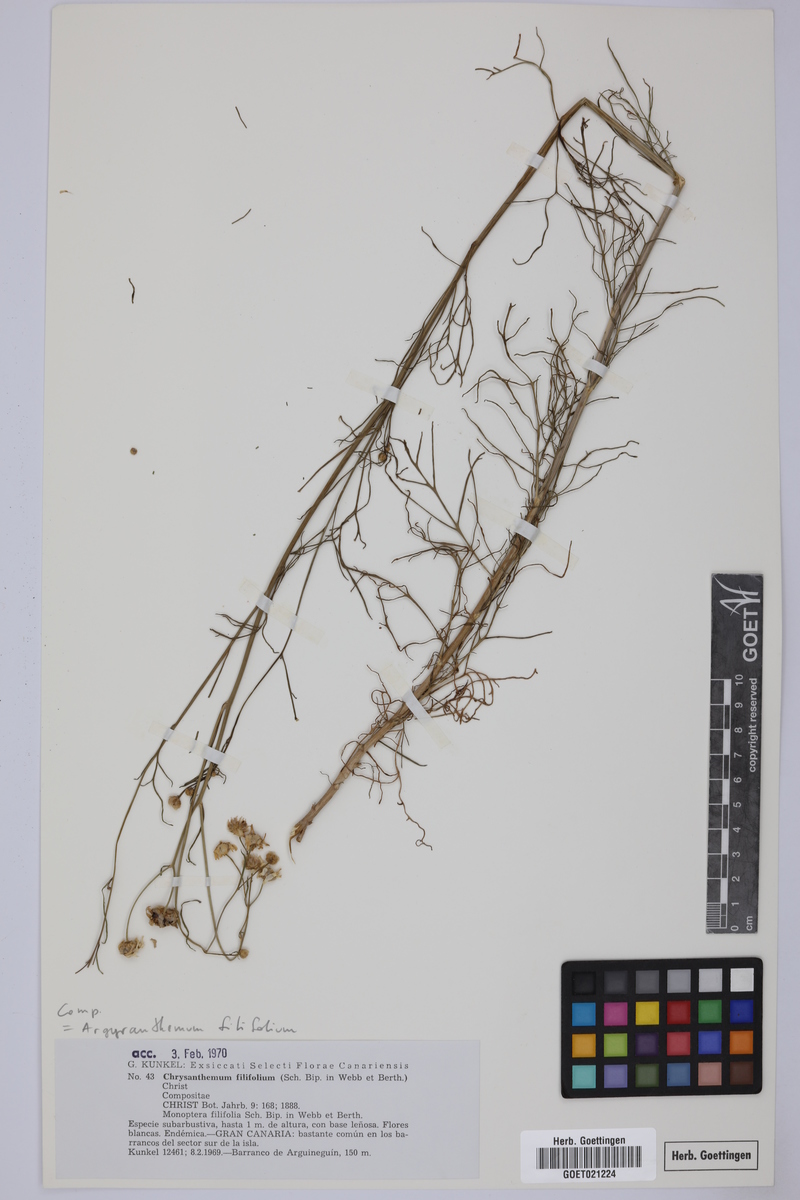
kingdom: Plantae
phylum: Tracheophyta
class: Magnoliopsida
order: Asterales
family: Asteraceae
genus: Argyranthemum
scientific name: Argyranthemum filifolium
